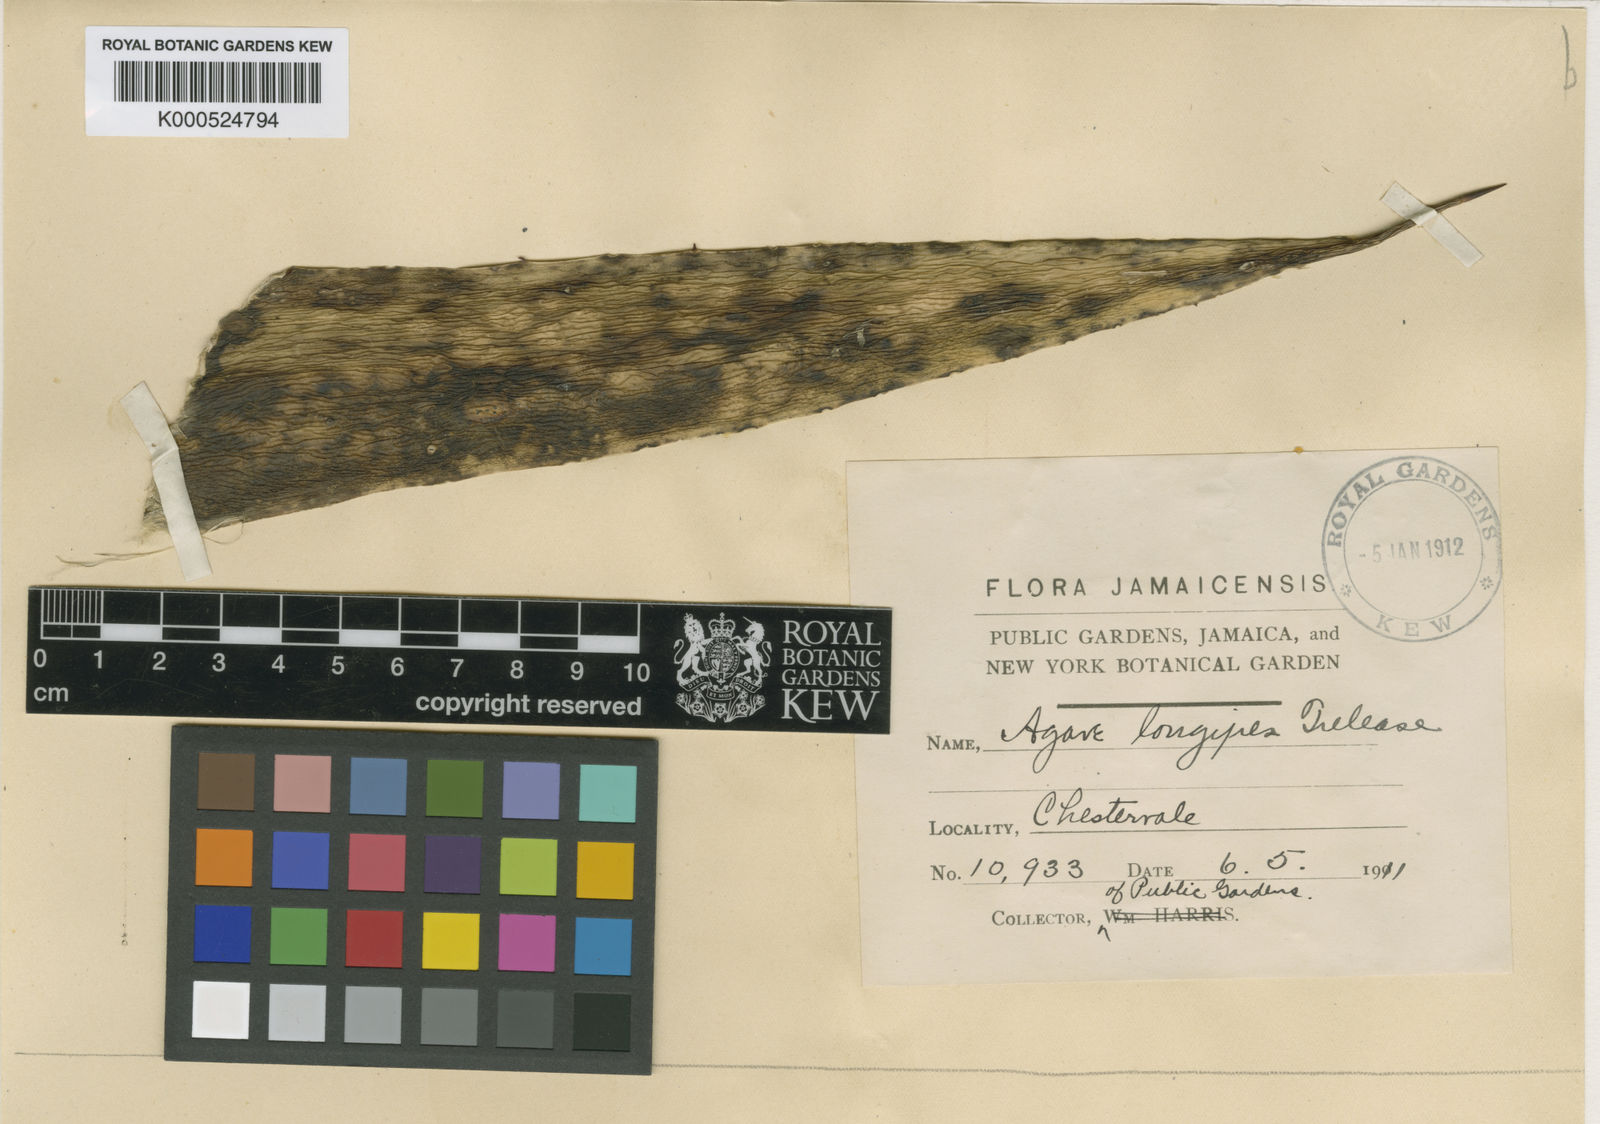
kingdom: Plantae
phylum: Tracheophyta
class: Liliopsida
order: Asparagales
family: Asparagaceae
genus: Agave
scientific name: Agave longipes
